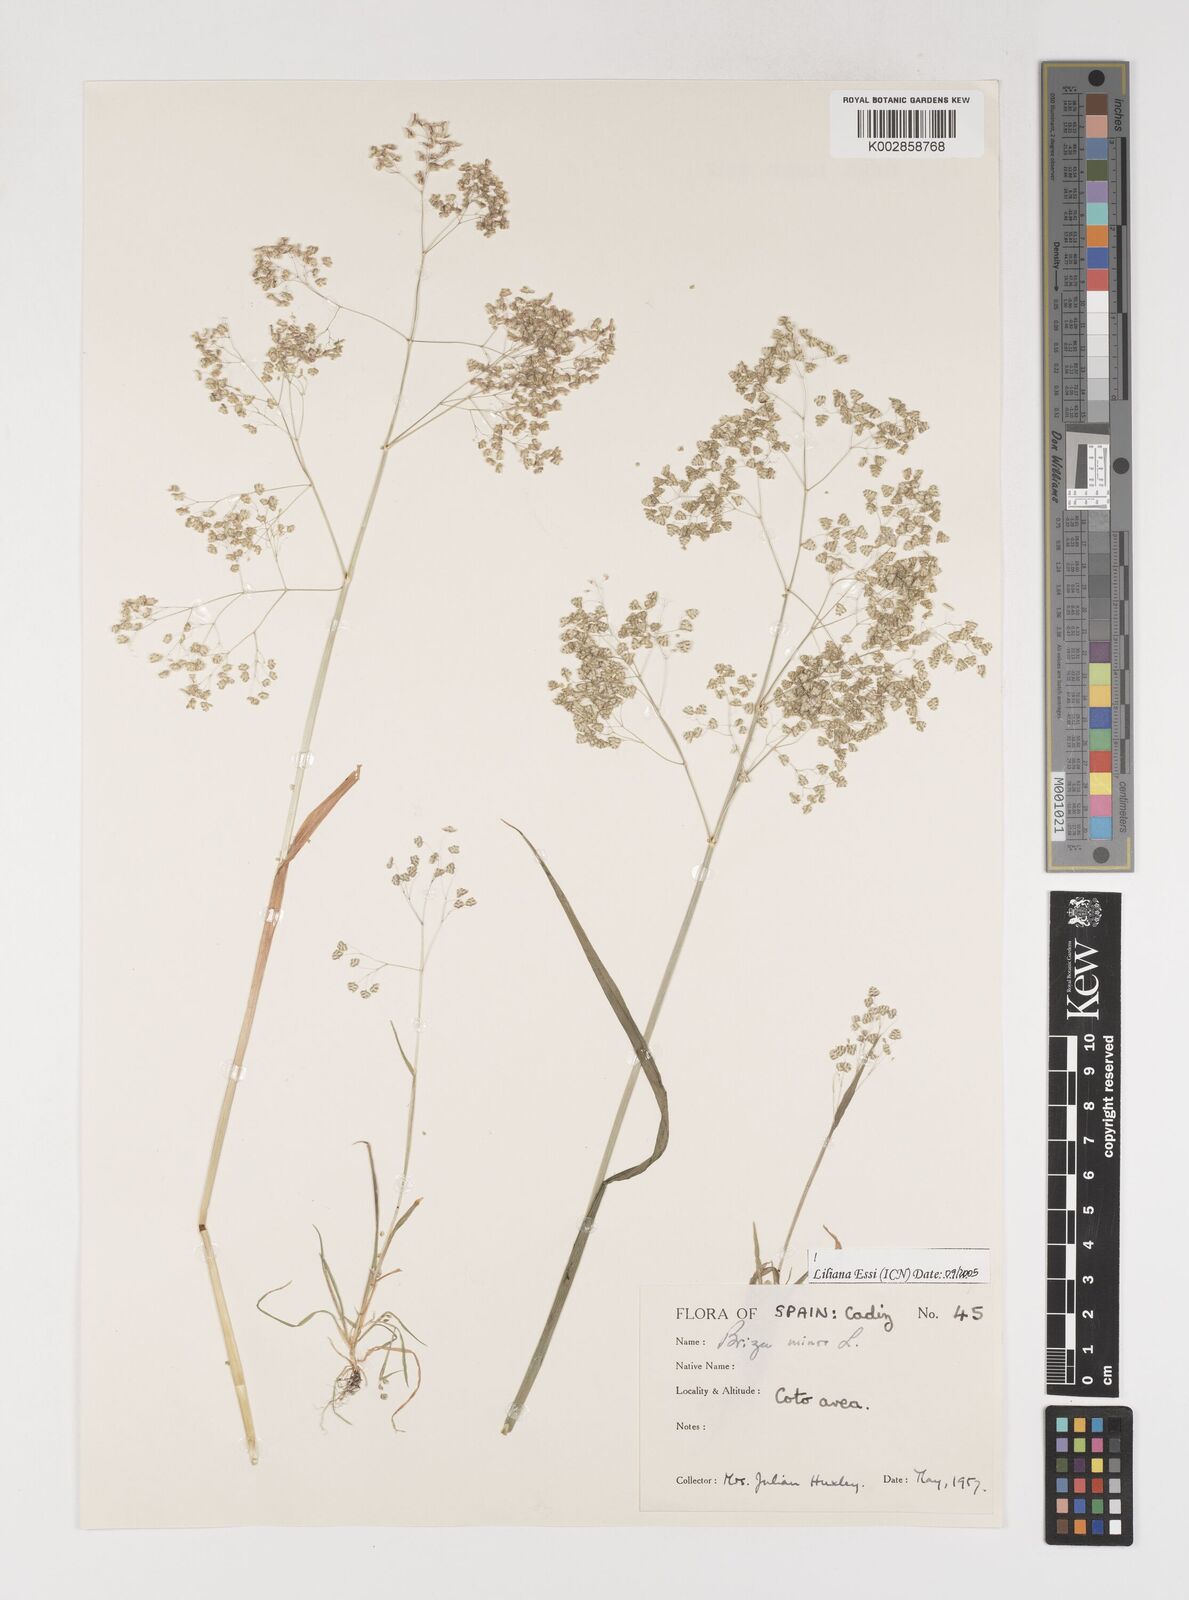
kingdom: Plantae
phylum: Tracheophyta
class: Liliopsida
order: Poales
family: Poaceae
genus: Briza
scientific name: Briza minor
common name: Lesser quaking-grass
